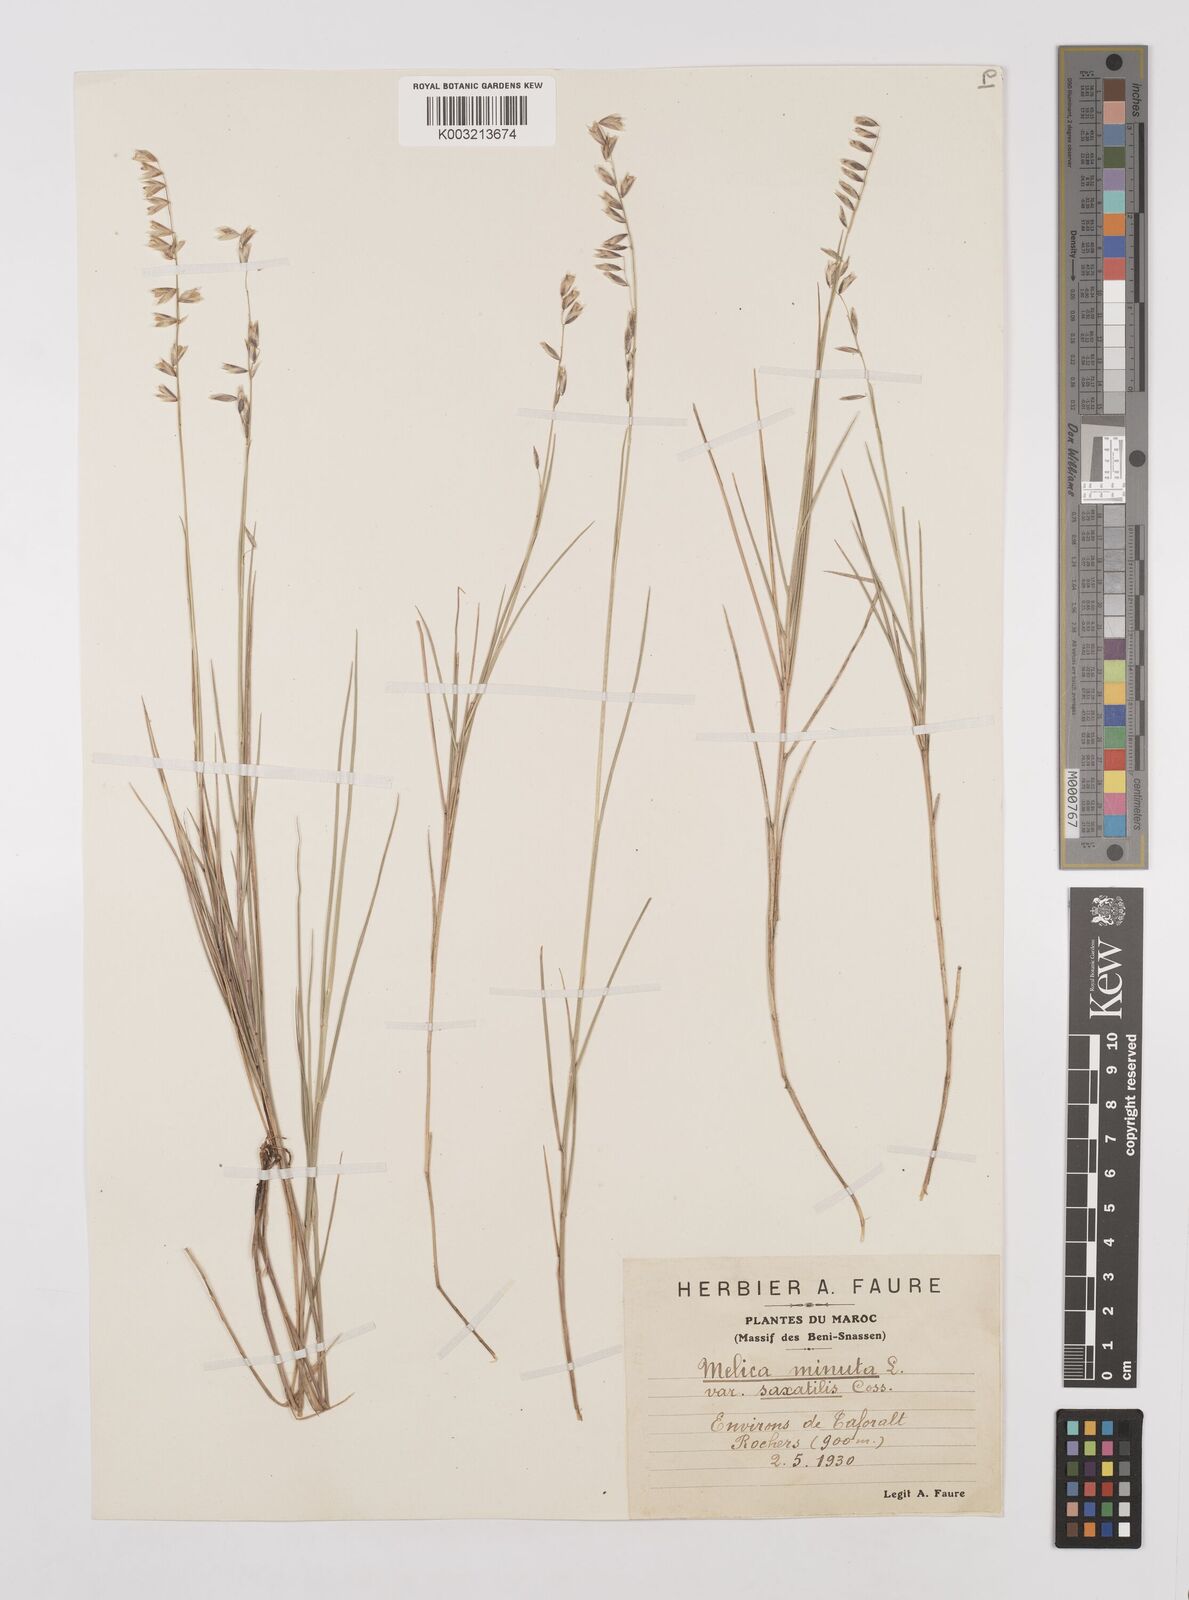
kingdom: Plantae
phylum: Tracheophyta
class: Liliopsida
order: Poales
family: Poaceae
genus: Melica
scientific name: Melica minuta
